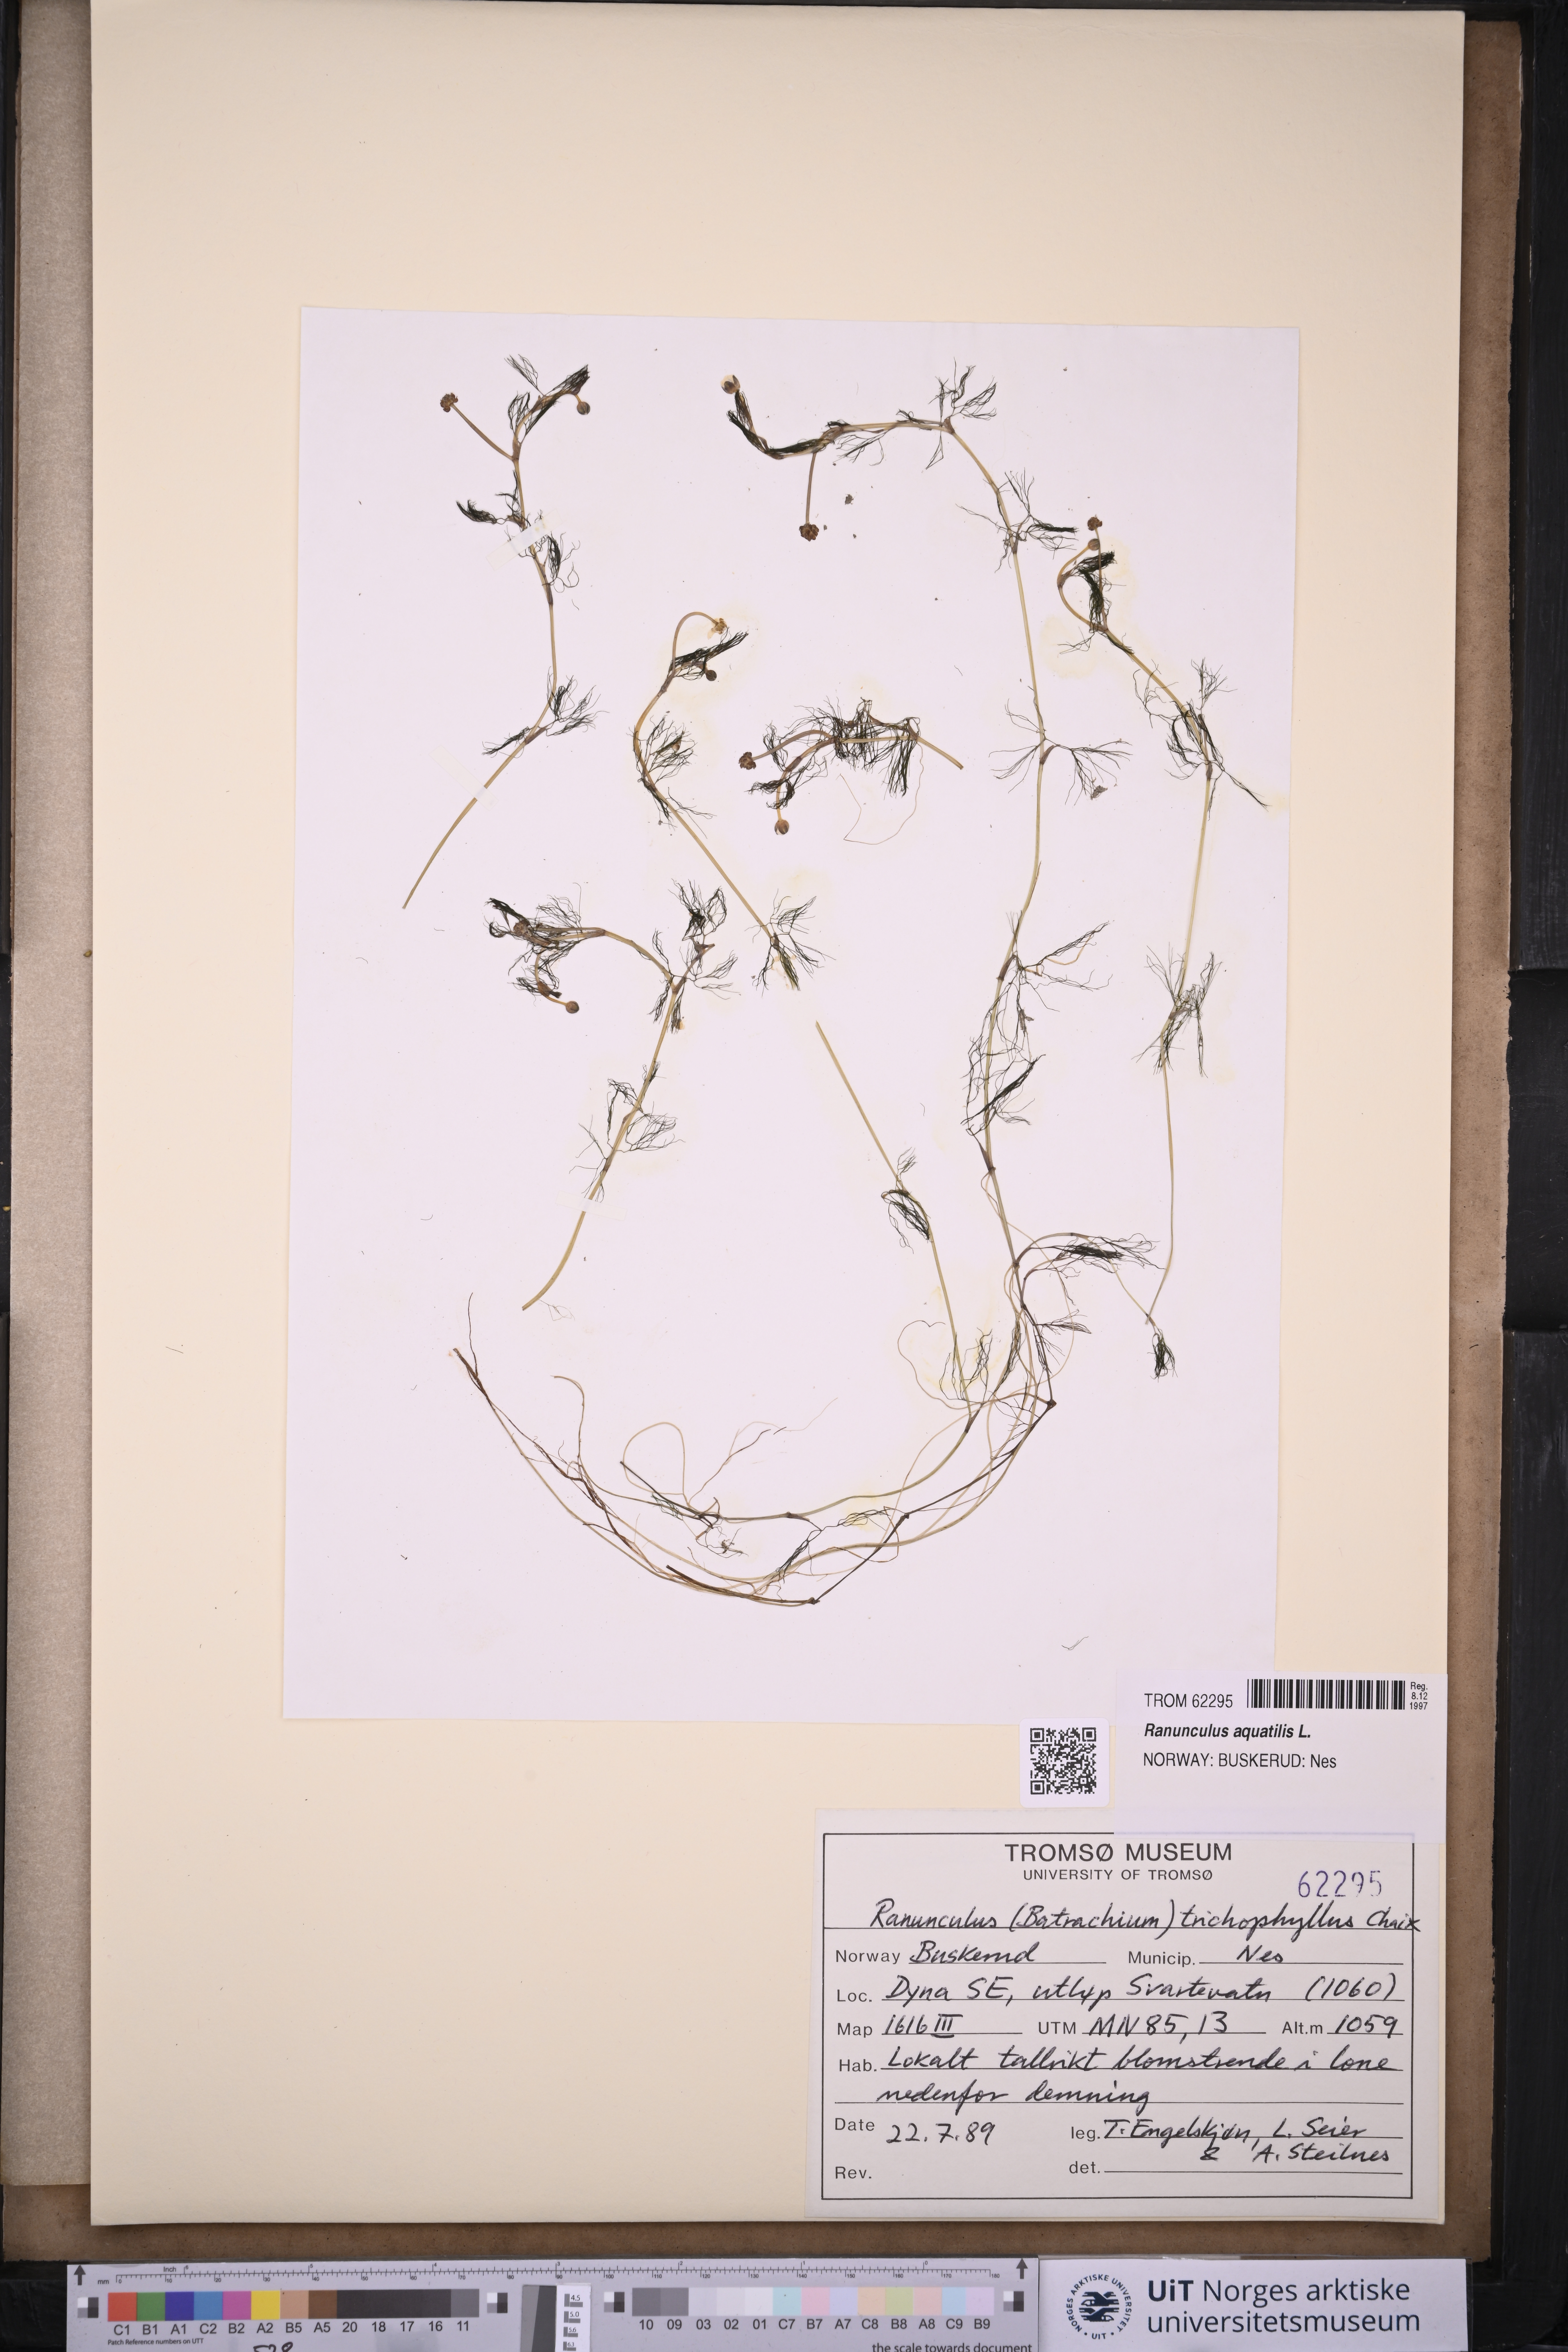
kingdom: Plantae
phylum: Tracheophyta
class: Magnoliopsida
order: Ranunculales
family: Ranunculaceae
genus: Ranunculus
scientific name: Ranunculus trichophyllus
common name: Thread-leaved water-crowfoot
